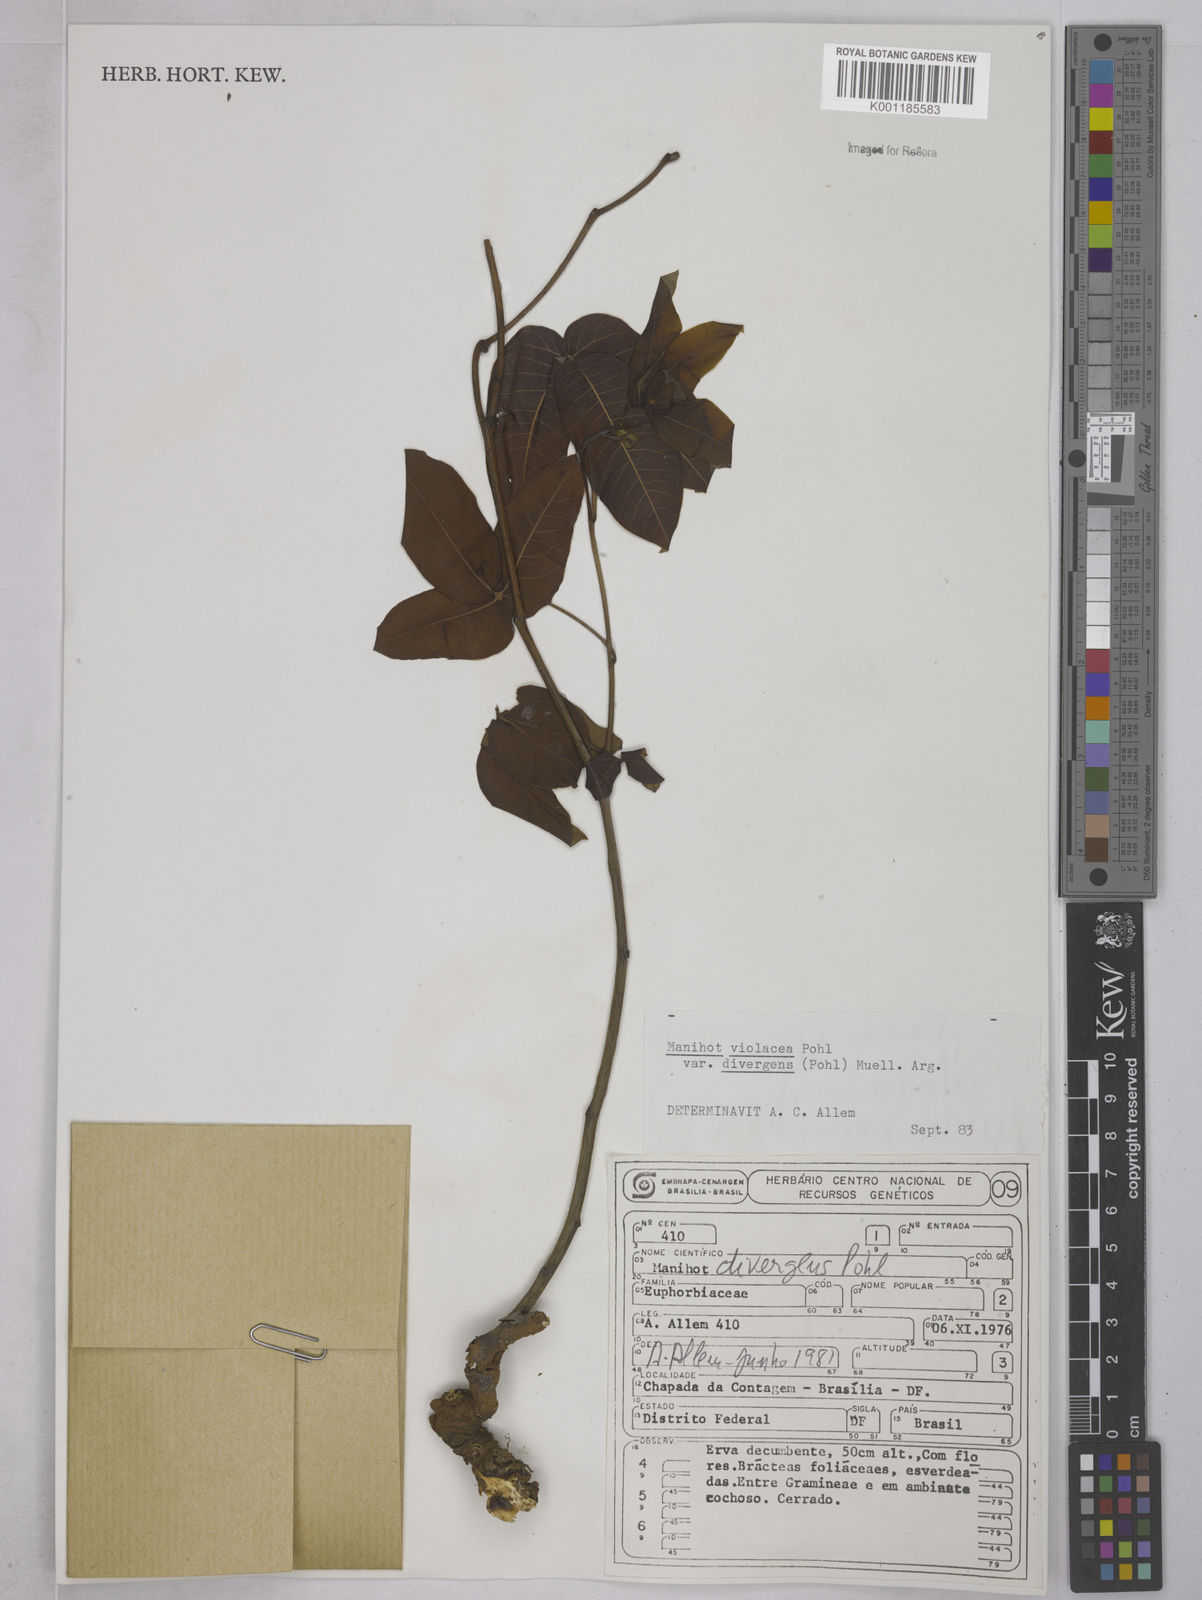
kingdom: Plantae
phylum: Tracheophyta
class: Magnoliopsida
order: Malpighiales
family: Euphorbiaceae
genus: Manihot
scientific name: Manihot divergens
